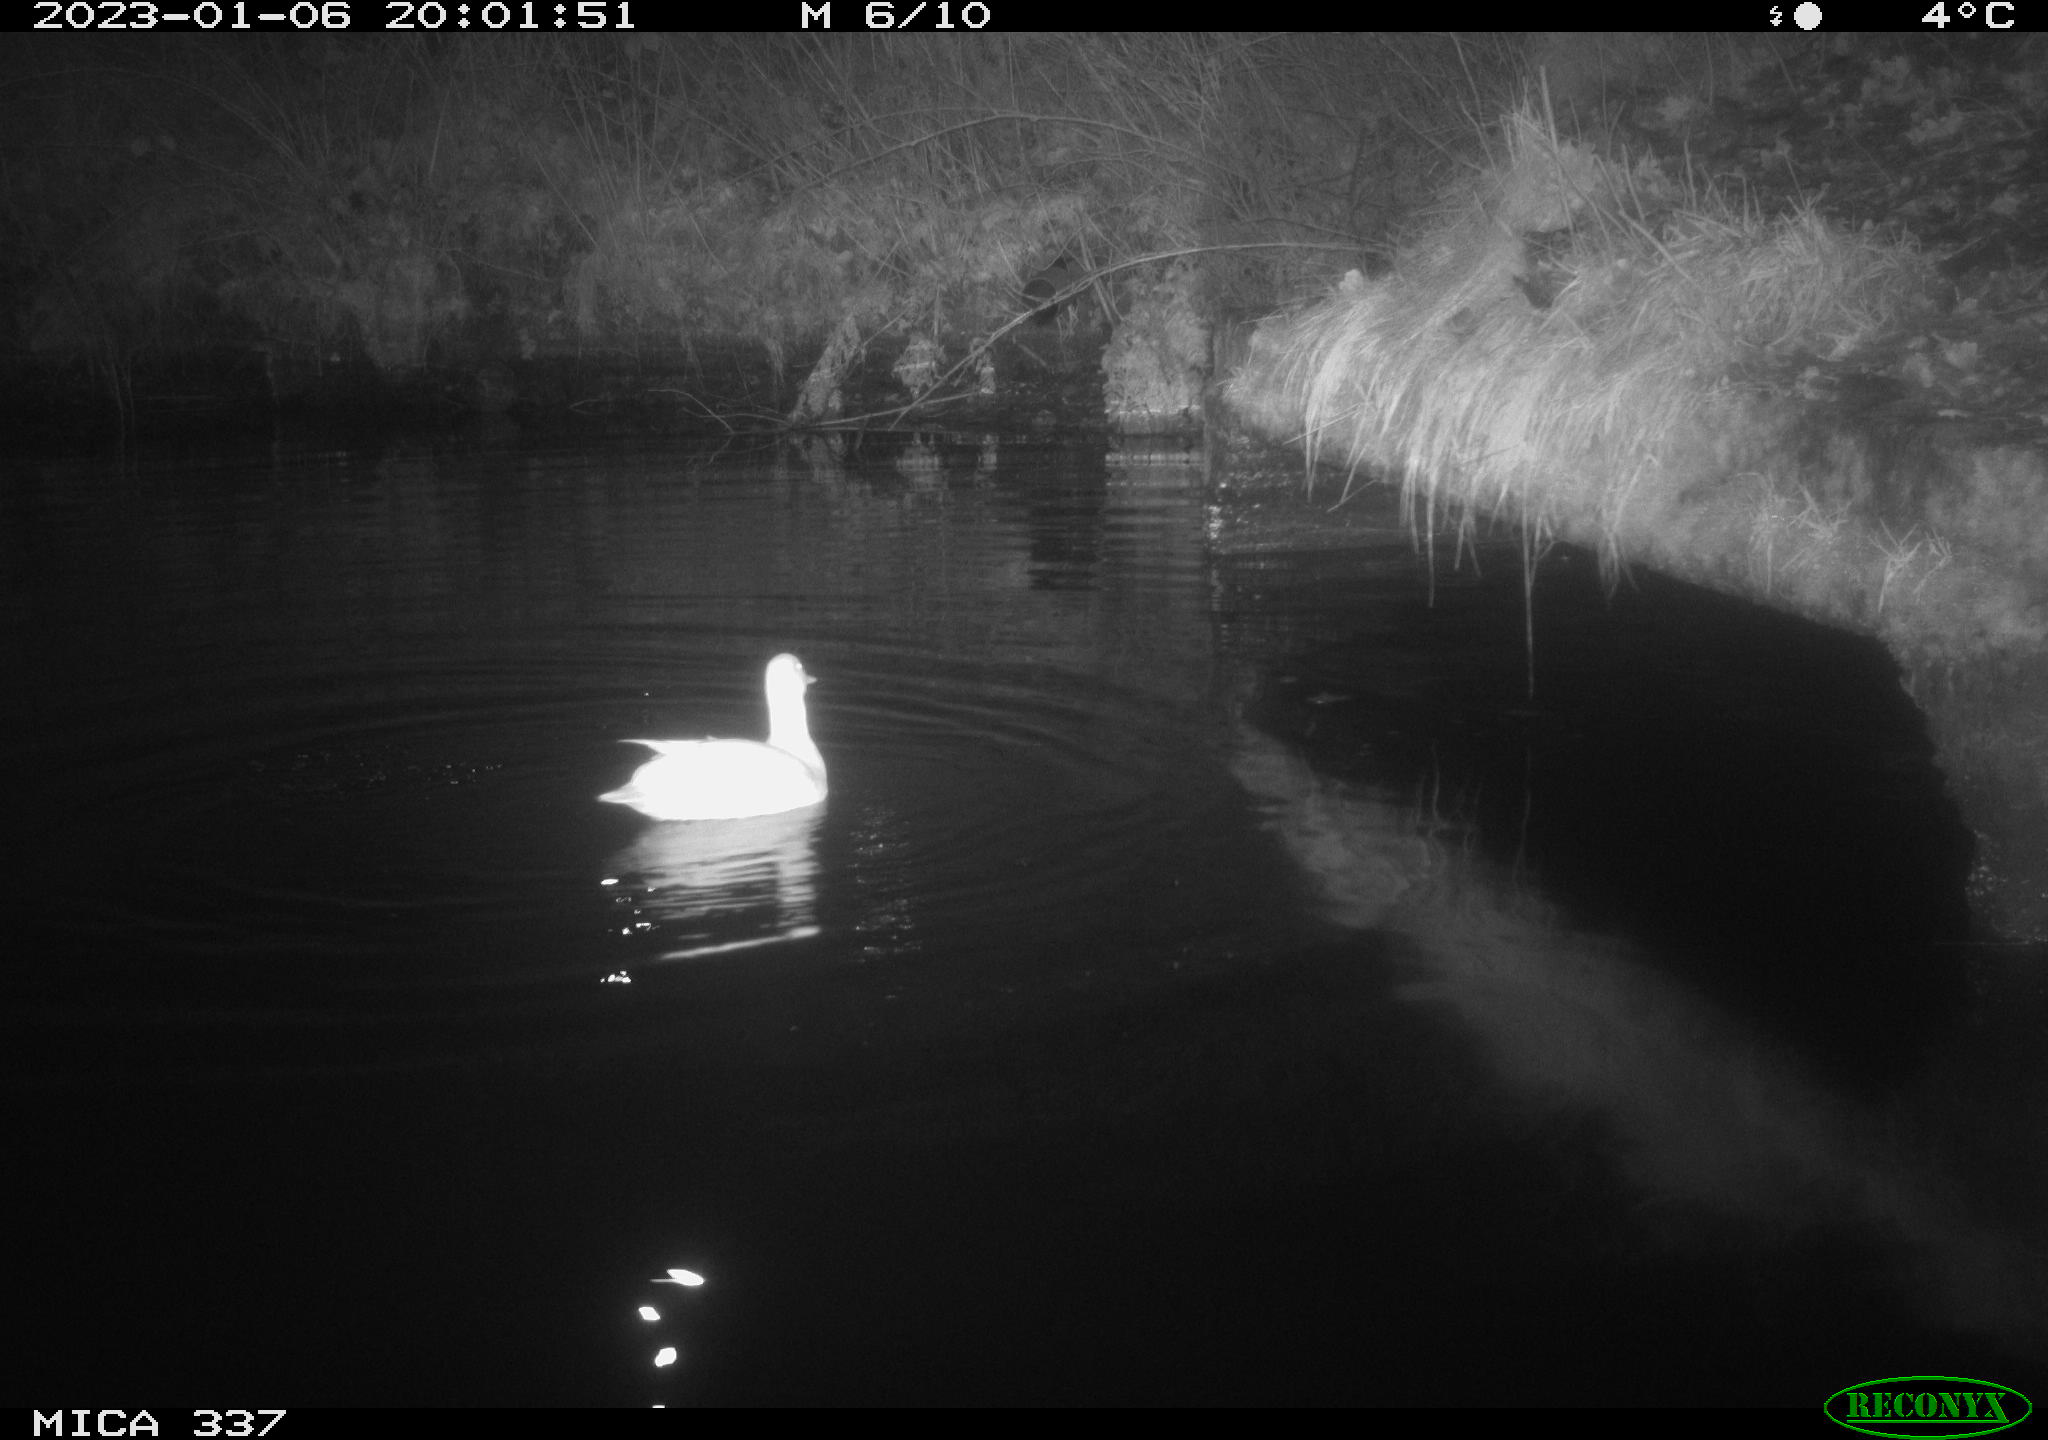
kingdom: Animalia
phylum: Chordata
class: Aves
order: Anseriformes
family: Anatidae
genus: Anas
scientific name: Anas
